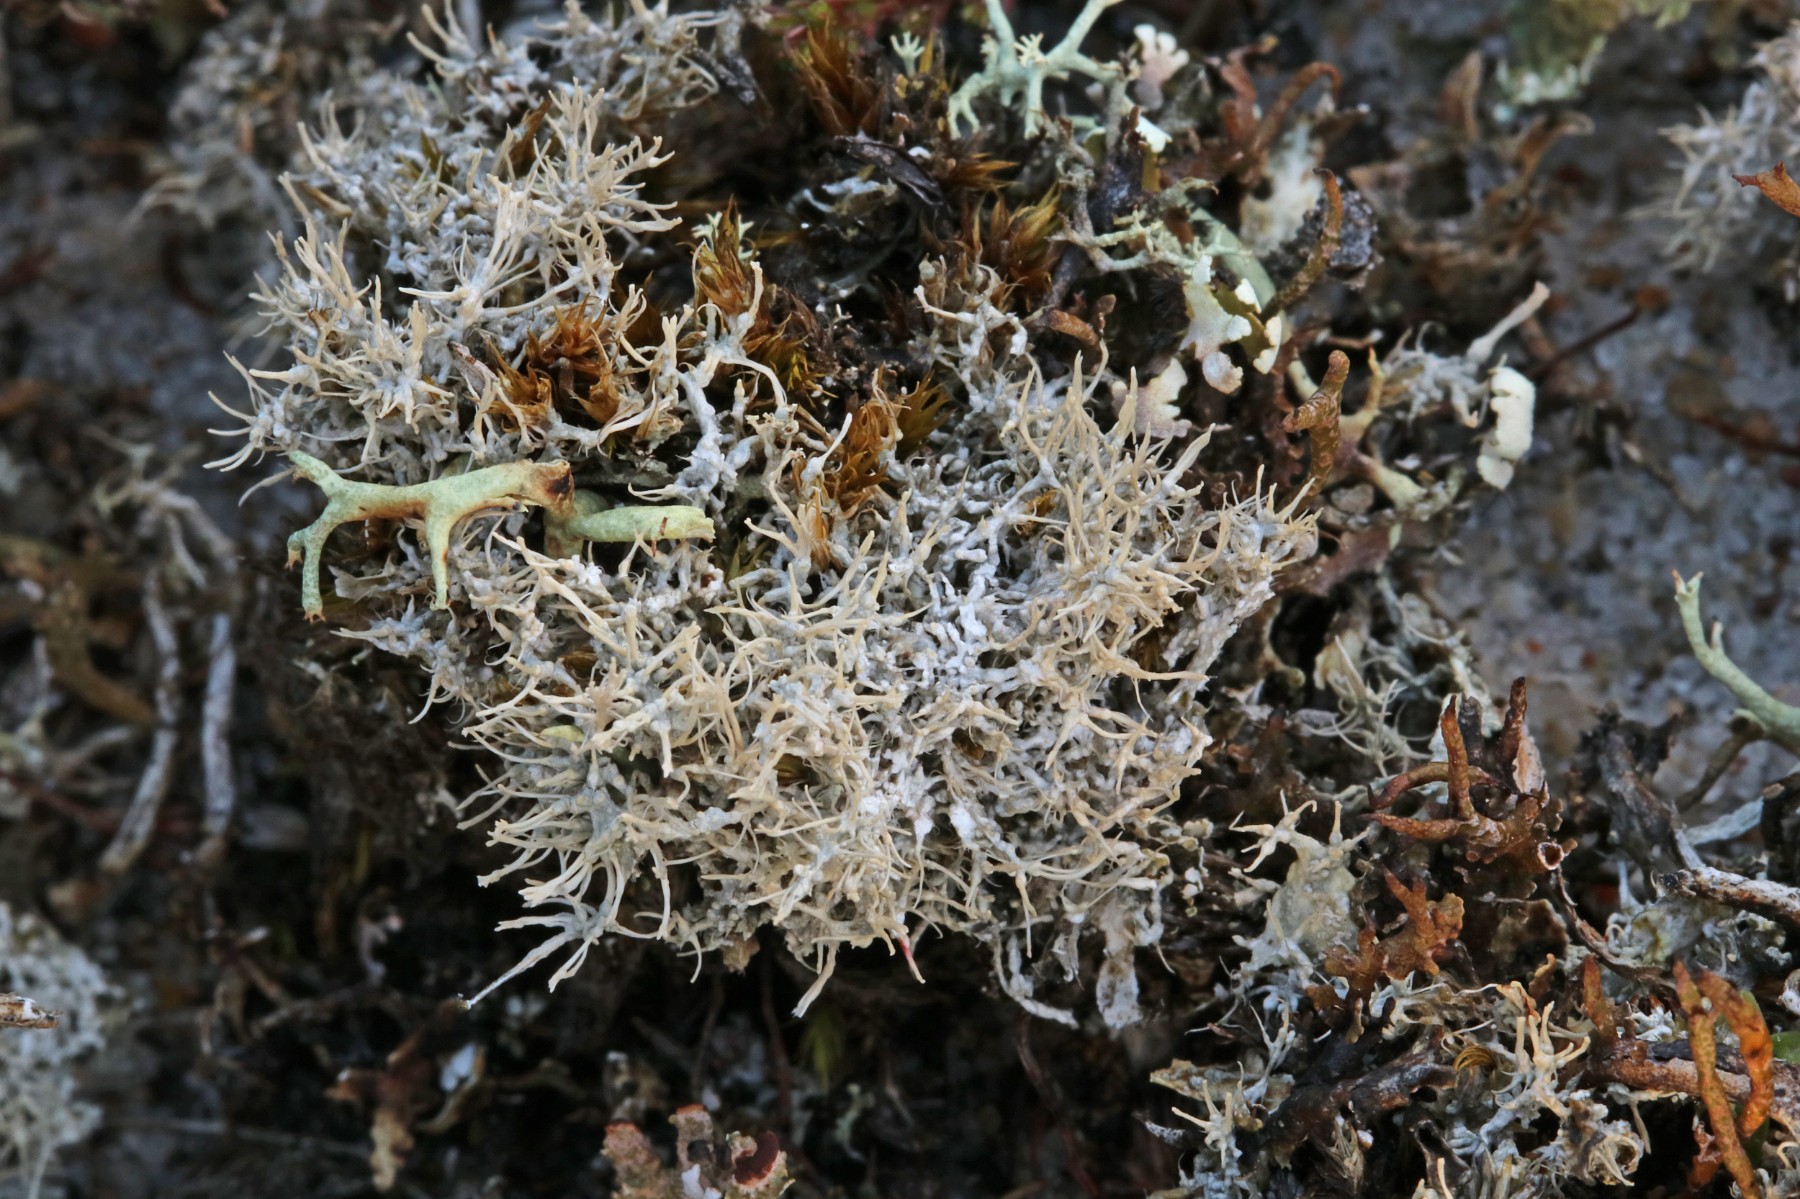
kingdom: Fungi
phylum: Ascomycota
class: Lecanoromycetes
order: Pertusariales
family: Ochrolechiaceae
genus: Ochrolechia
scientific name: Ochrolechia frigida
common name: fjeld-blegskivelav
